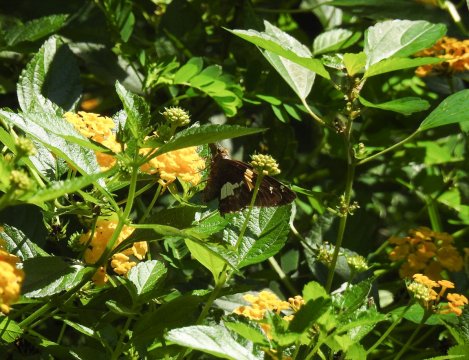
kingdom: Animalia
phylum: Arthropoda
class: Insecta
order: Lepidoptera
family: Hesperiidae
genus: Epargyreus
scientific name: Epargyreus clarus
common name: Silver-spotted Skipper
